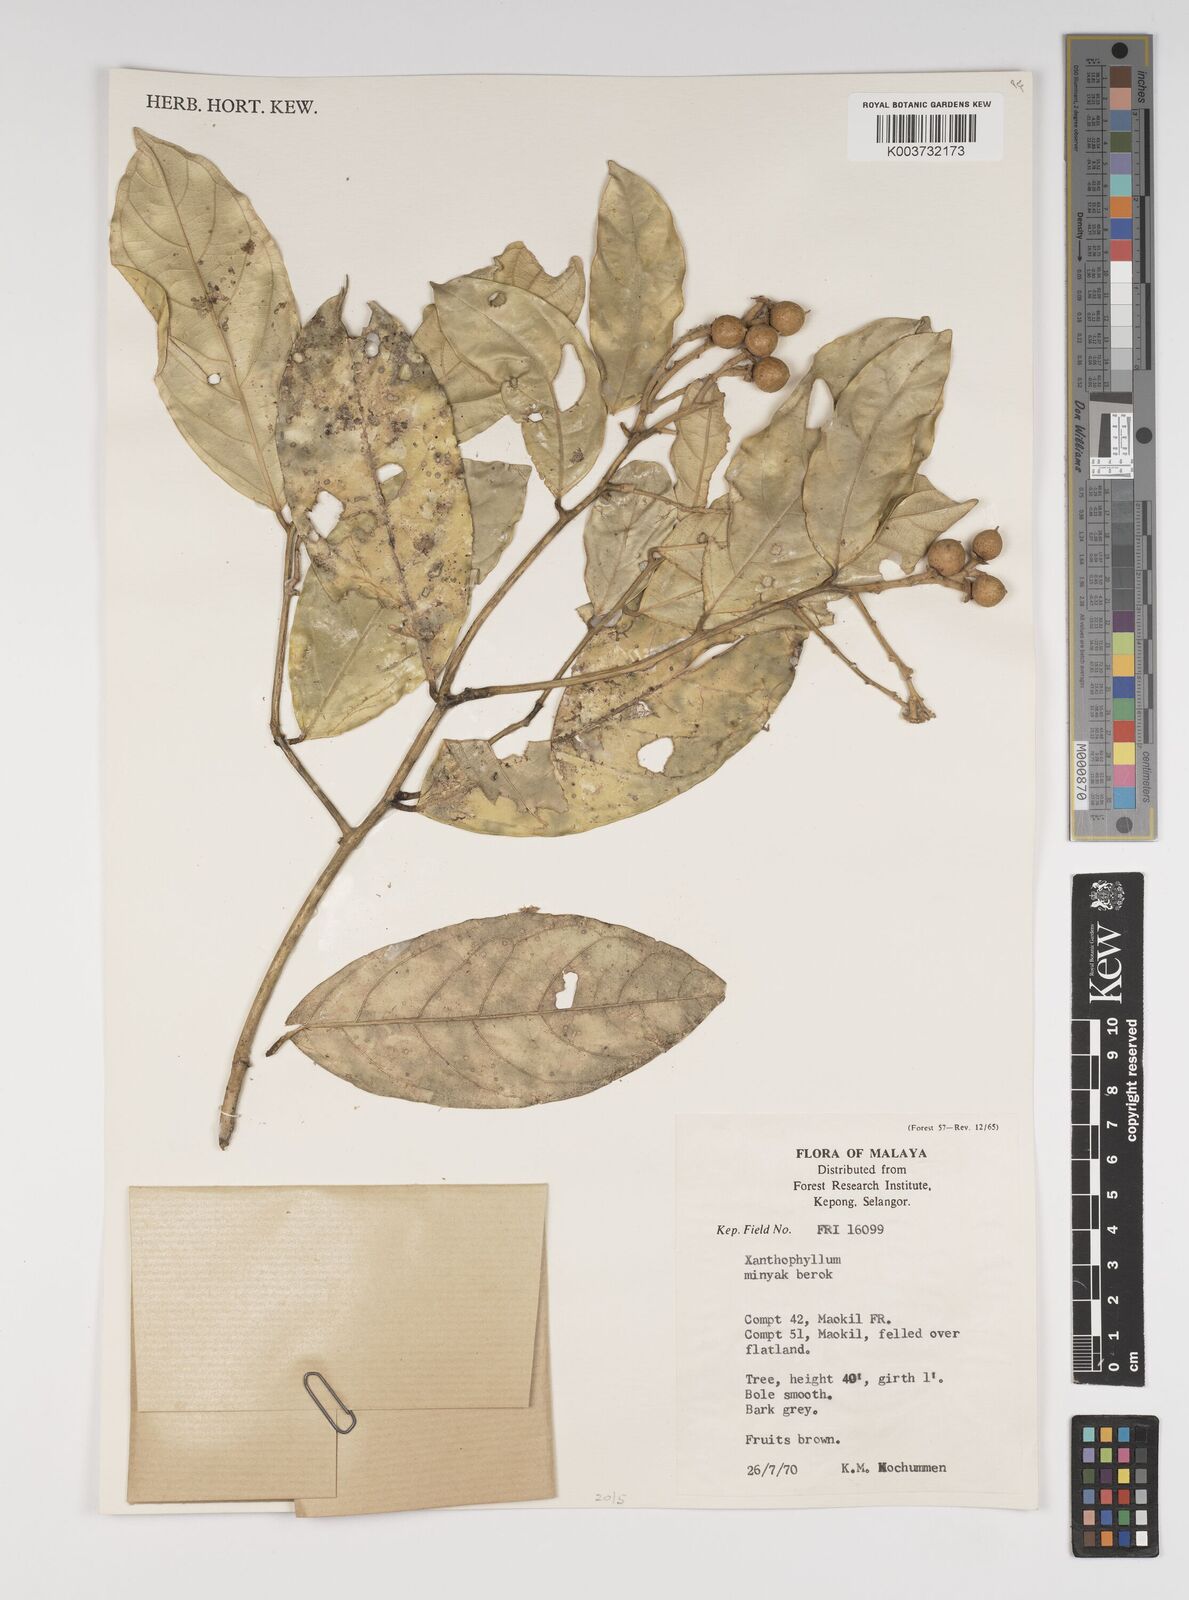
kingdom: Plantae
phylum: Tracheophyta
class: Magnoliopsida
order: Fabales
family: Polygalaceae
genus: Xanthophyllum
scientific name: Xanthophyllum
